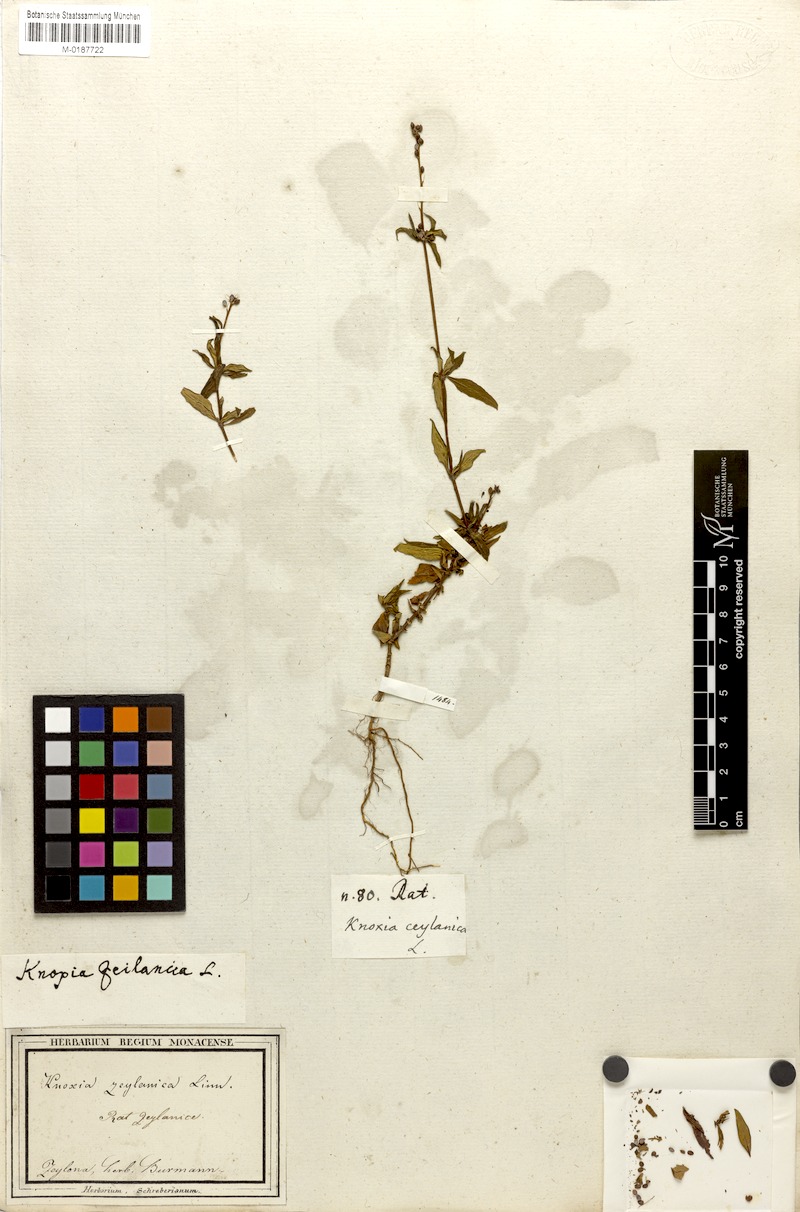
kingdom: Plantae
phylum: Tracheophyta
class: Magnoliopsida
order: Gentianales
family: Rubiaceae
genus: Knoxia
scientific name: Knoxia zeylanica
